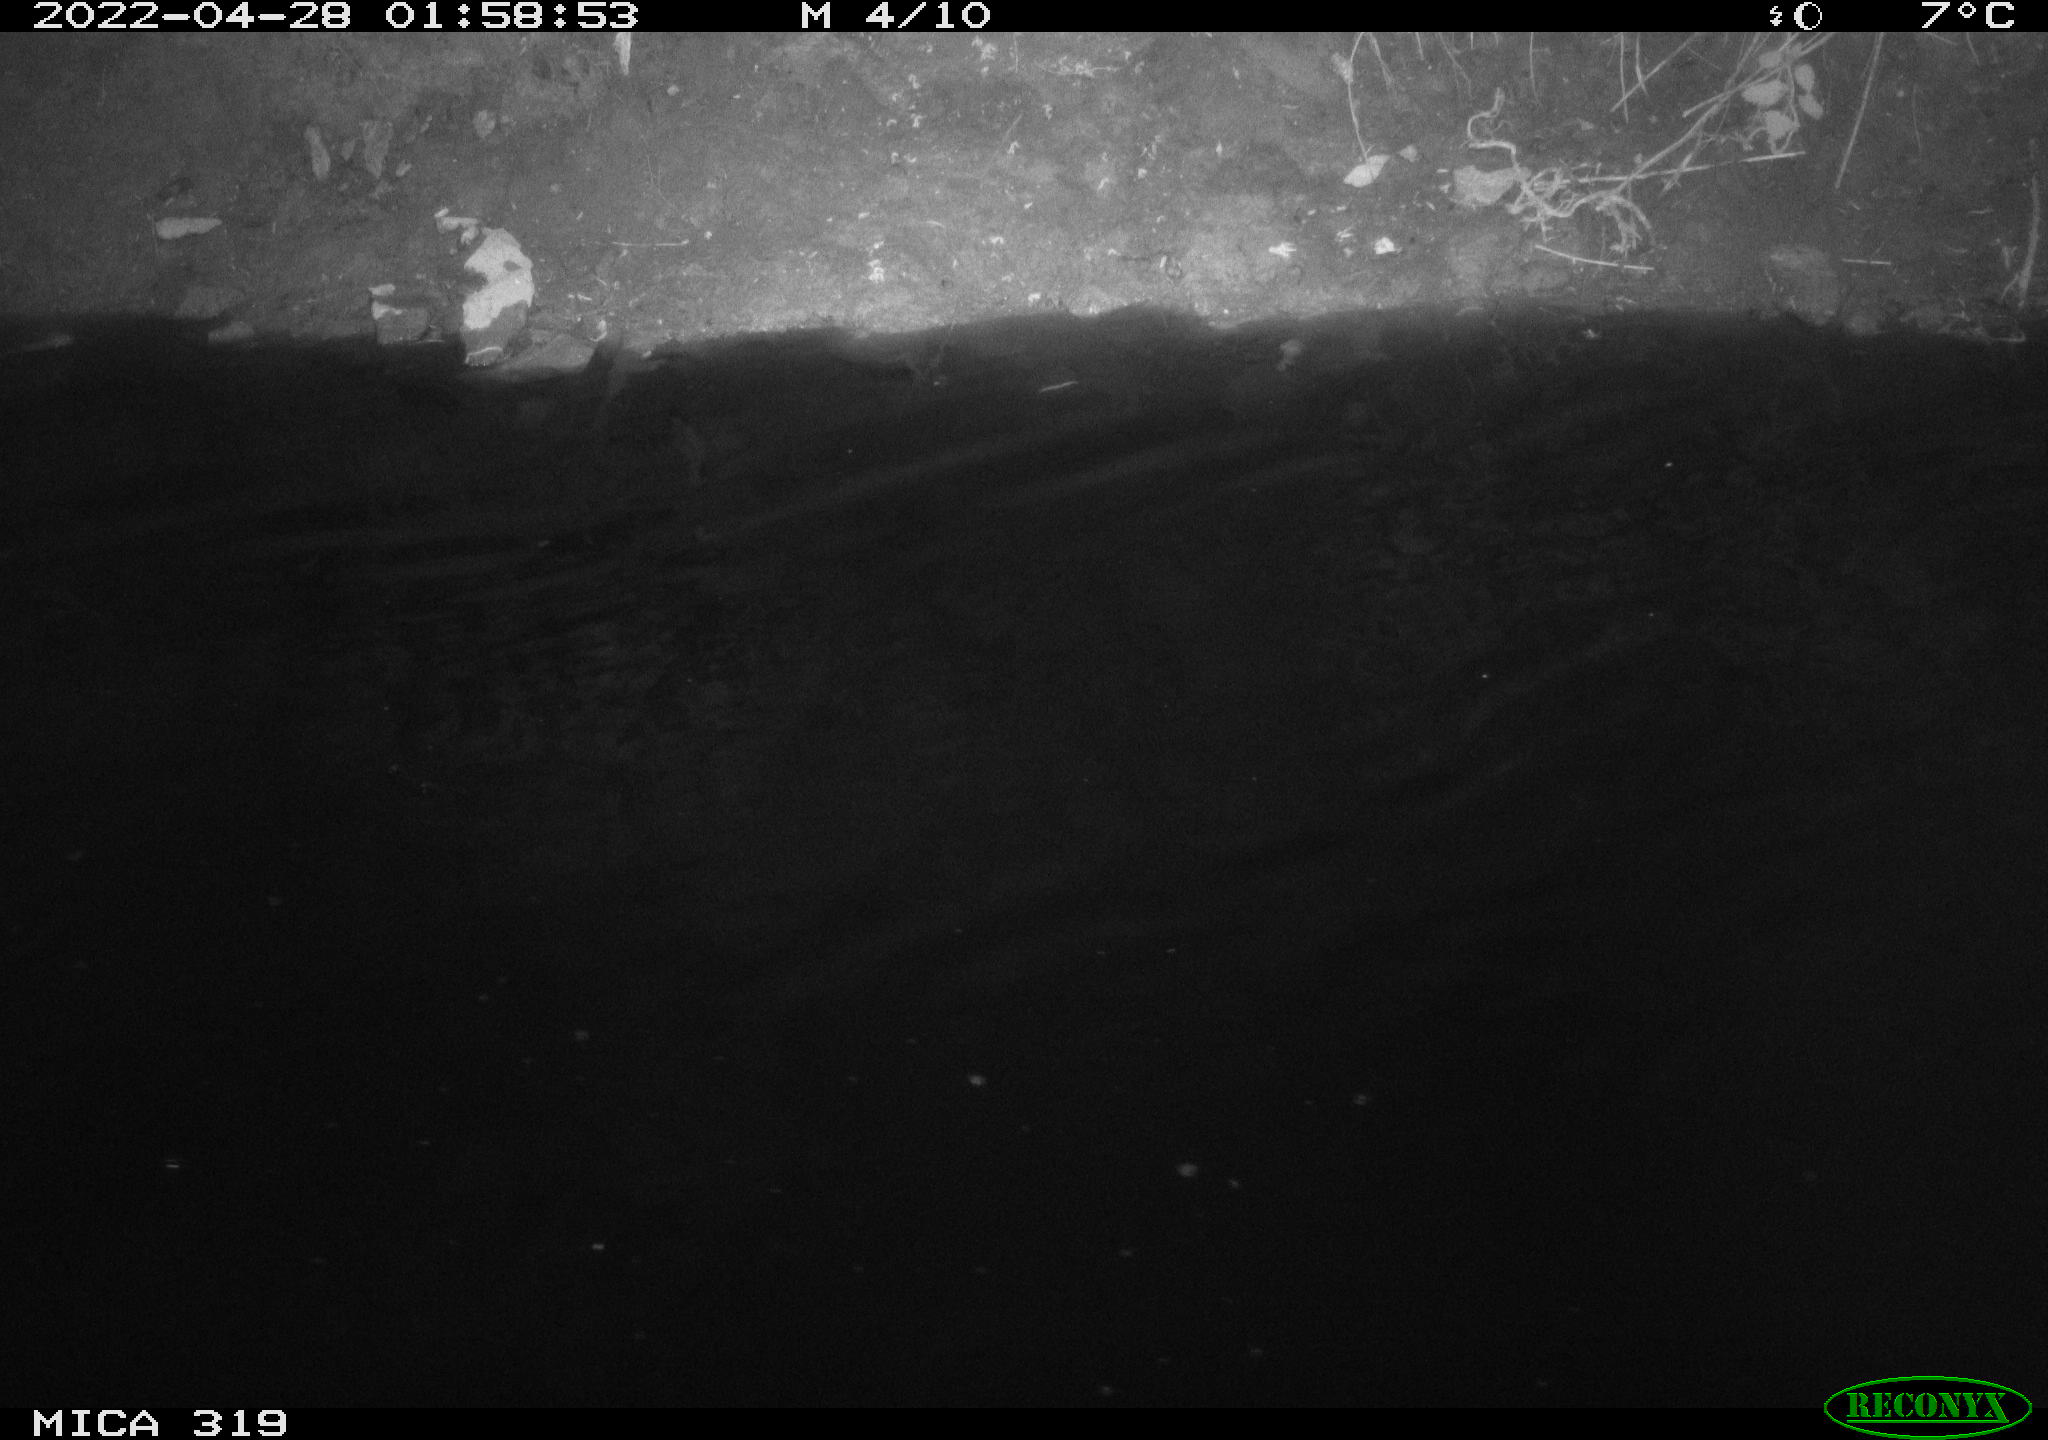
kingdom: Animalia
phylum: Chordata
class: Aves
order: Anseriformes
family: Anatidae
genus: Anas
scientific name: Anas platyrhynchos
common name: Mallard
